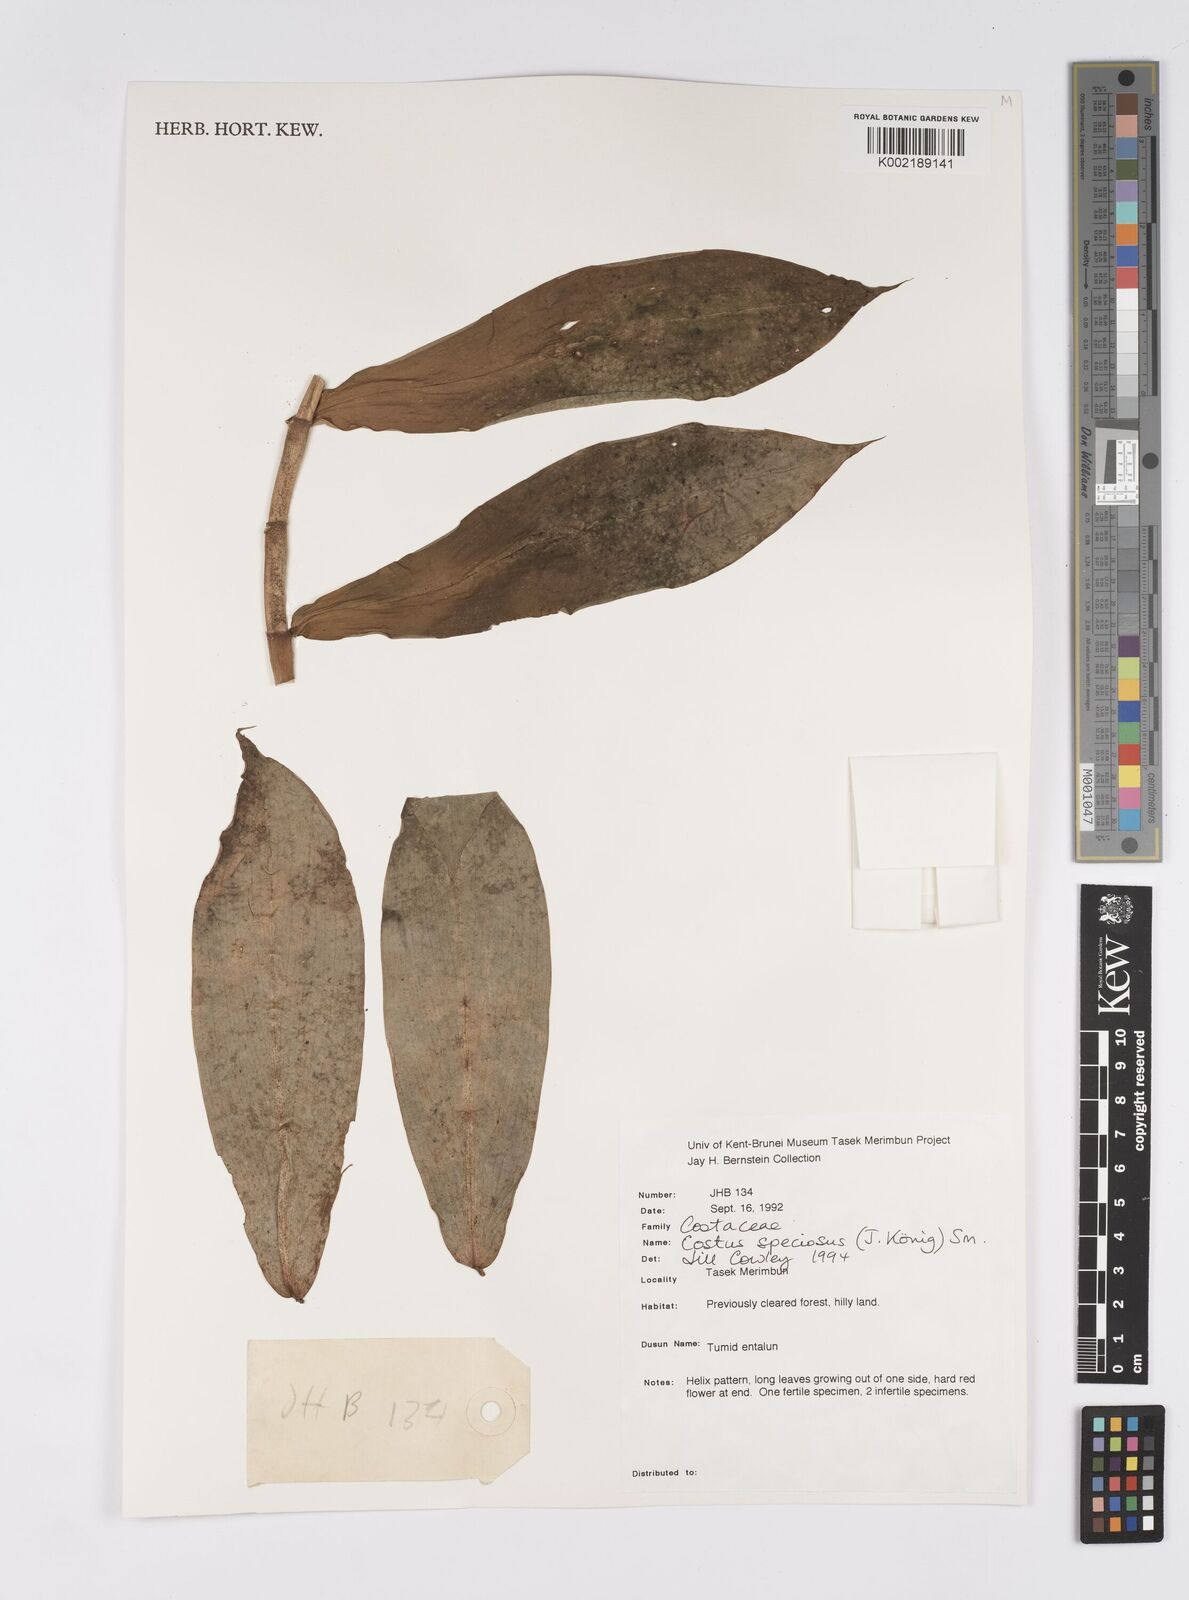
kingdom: Plantae
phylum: Tracheophyta
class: Liliopsida
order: Zingiberales
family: Costaceae
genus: Hellenia
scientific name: Hellenia speciosa
